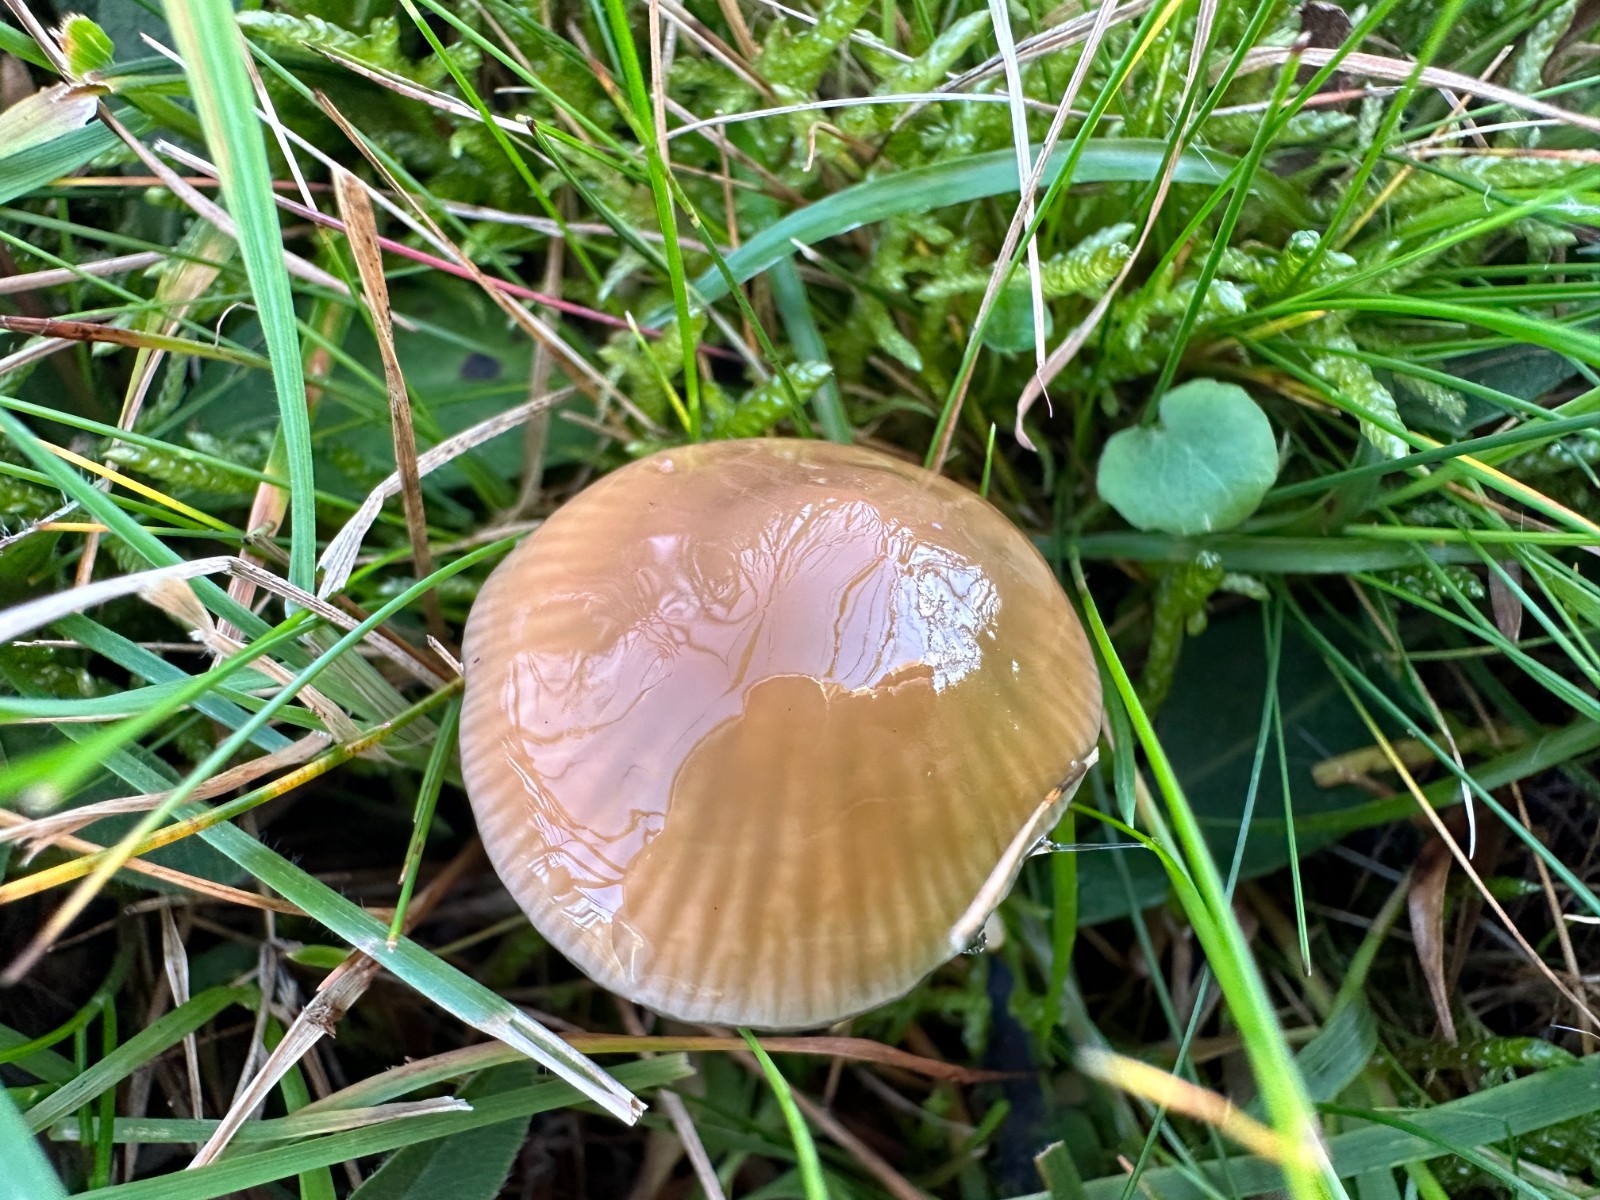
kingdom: Fungi
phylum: Basidiomycota
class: Agaricomycetes
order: Agaricales
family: Hygrophoraceae
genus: Gliophorus
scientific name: Gliophorus psittacinus
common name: papegøje-vokshat
